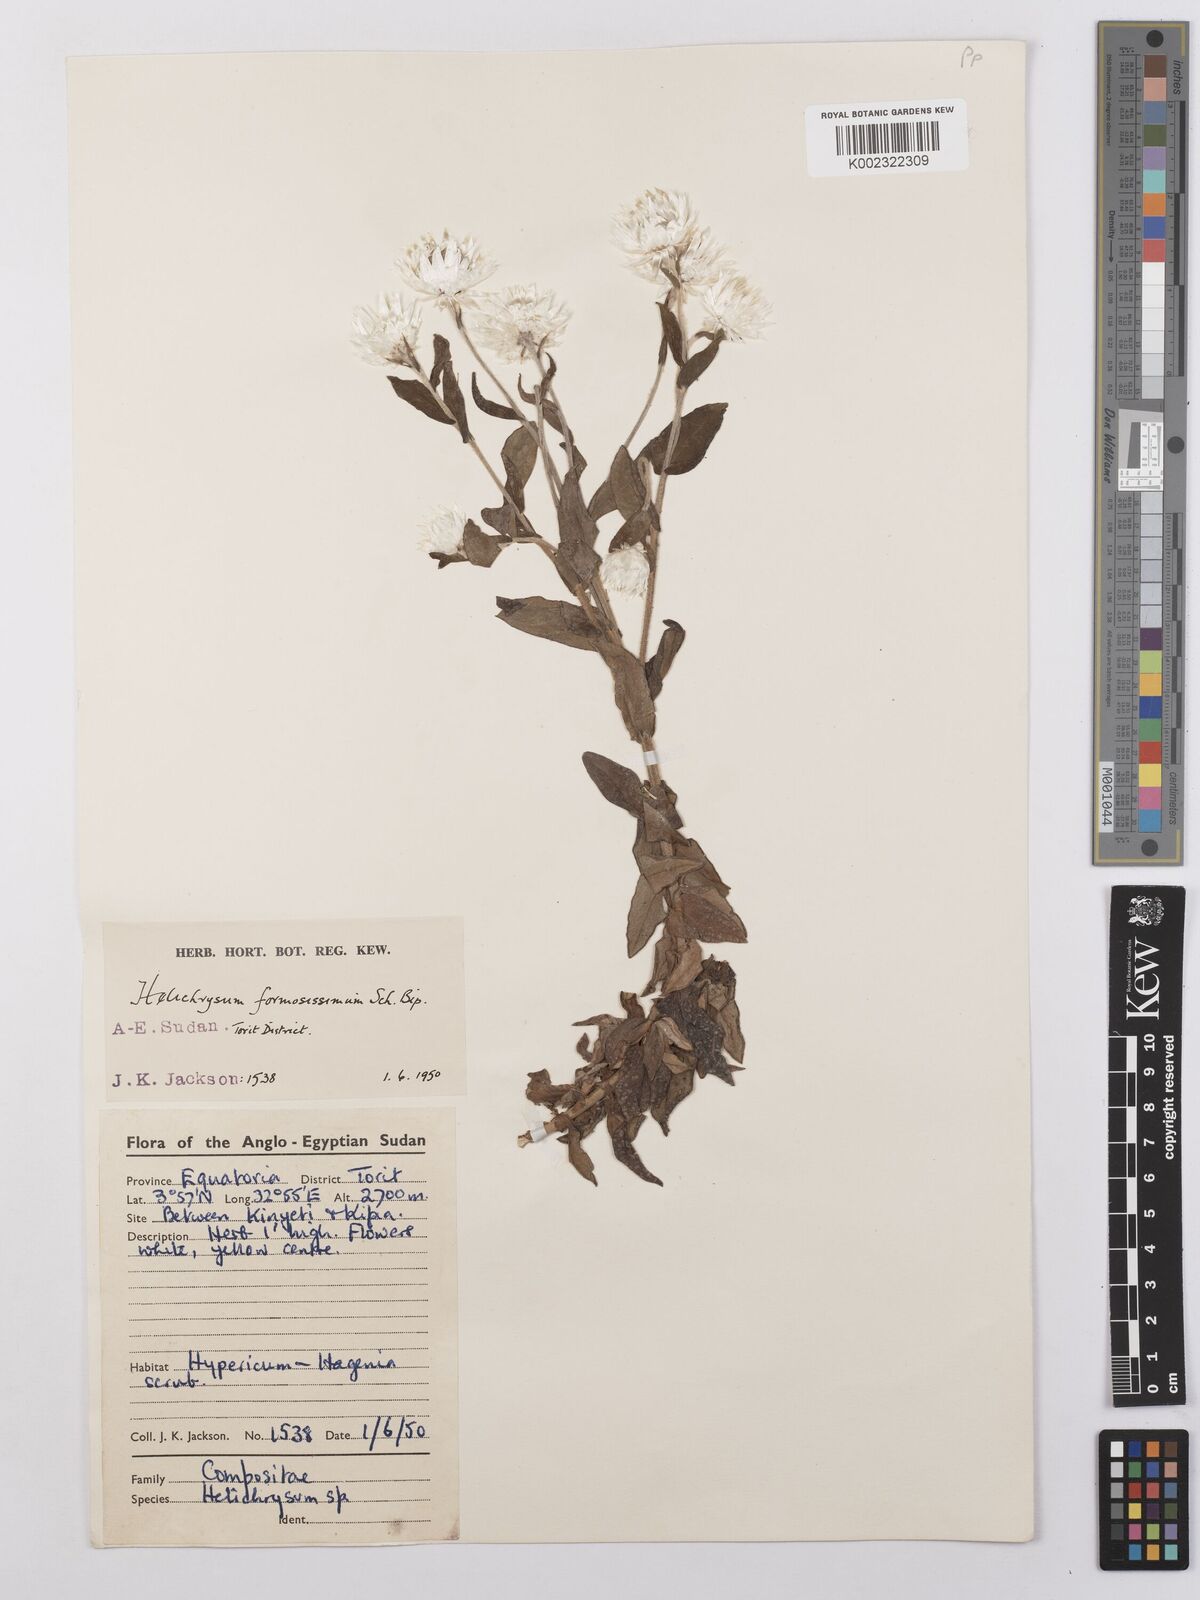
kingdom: Plantae
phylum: Tracheophyta
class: Magnoliopsida
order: Asterales
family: Asteraceae
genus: Helichrysum
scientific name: Helichrysum formosissimum
